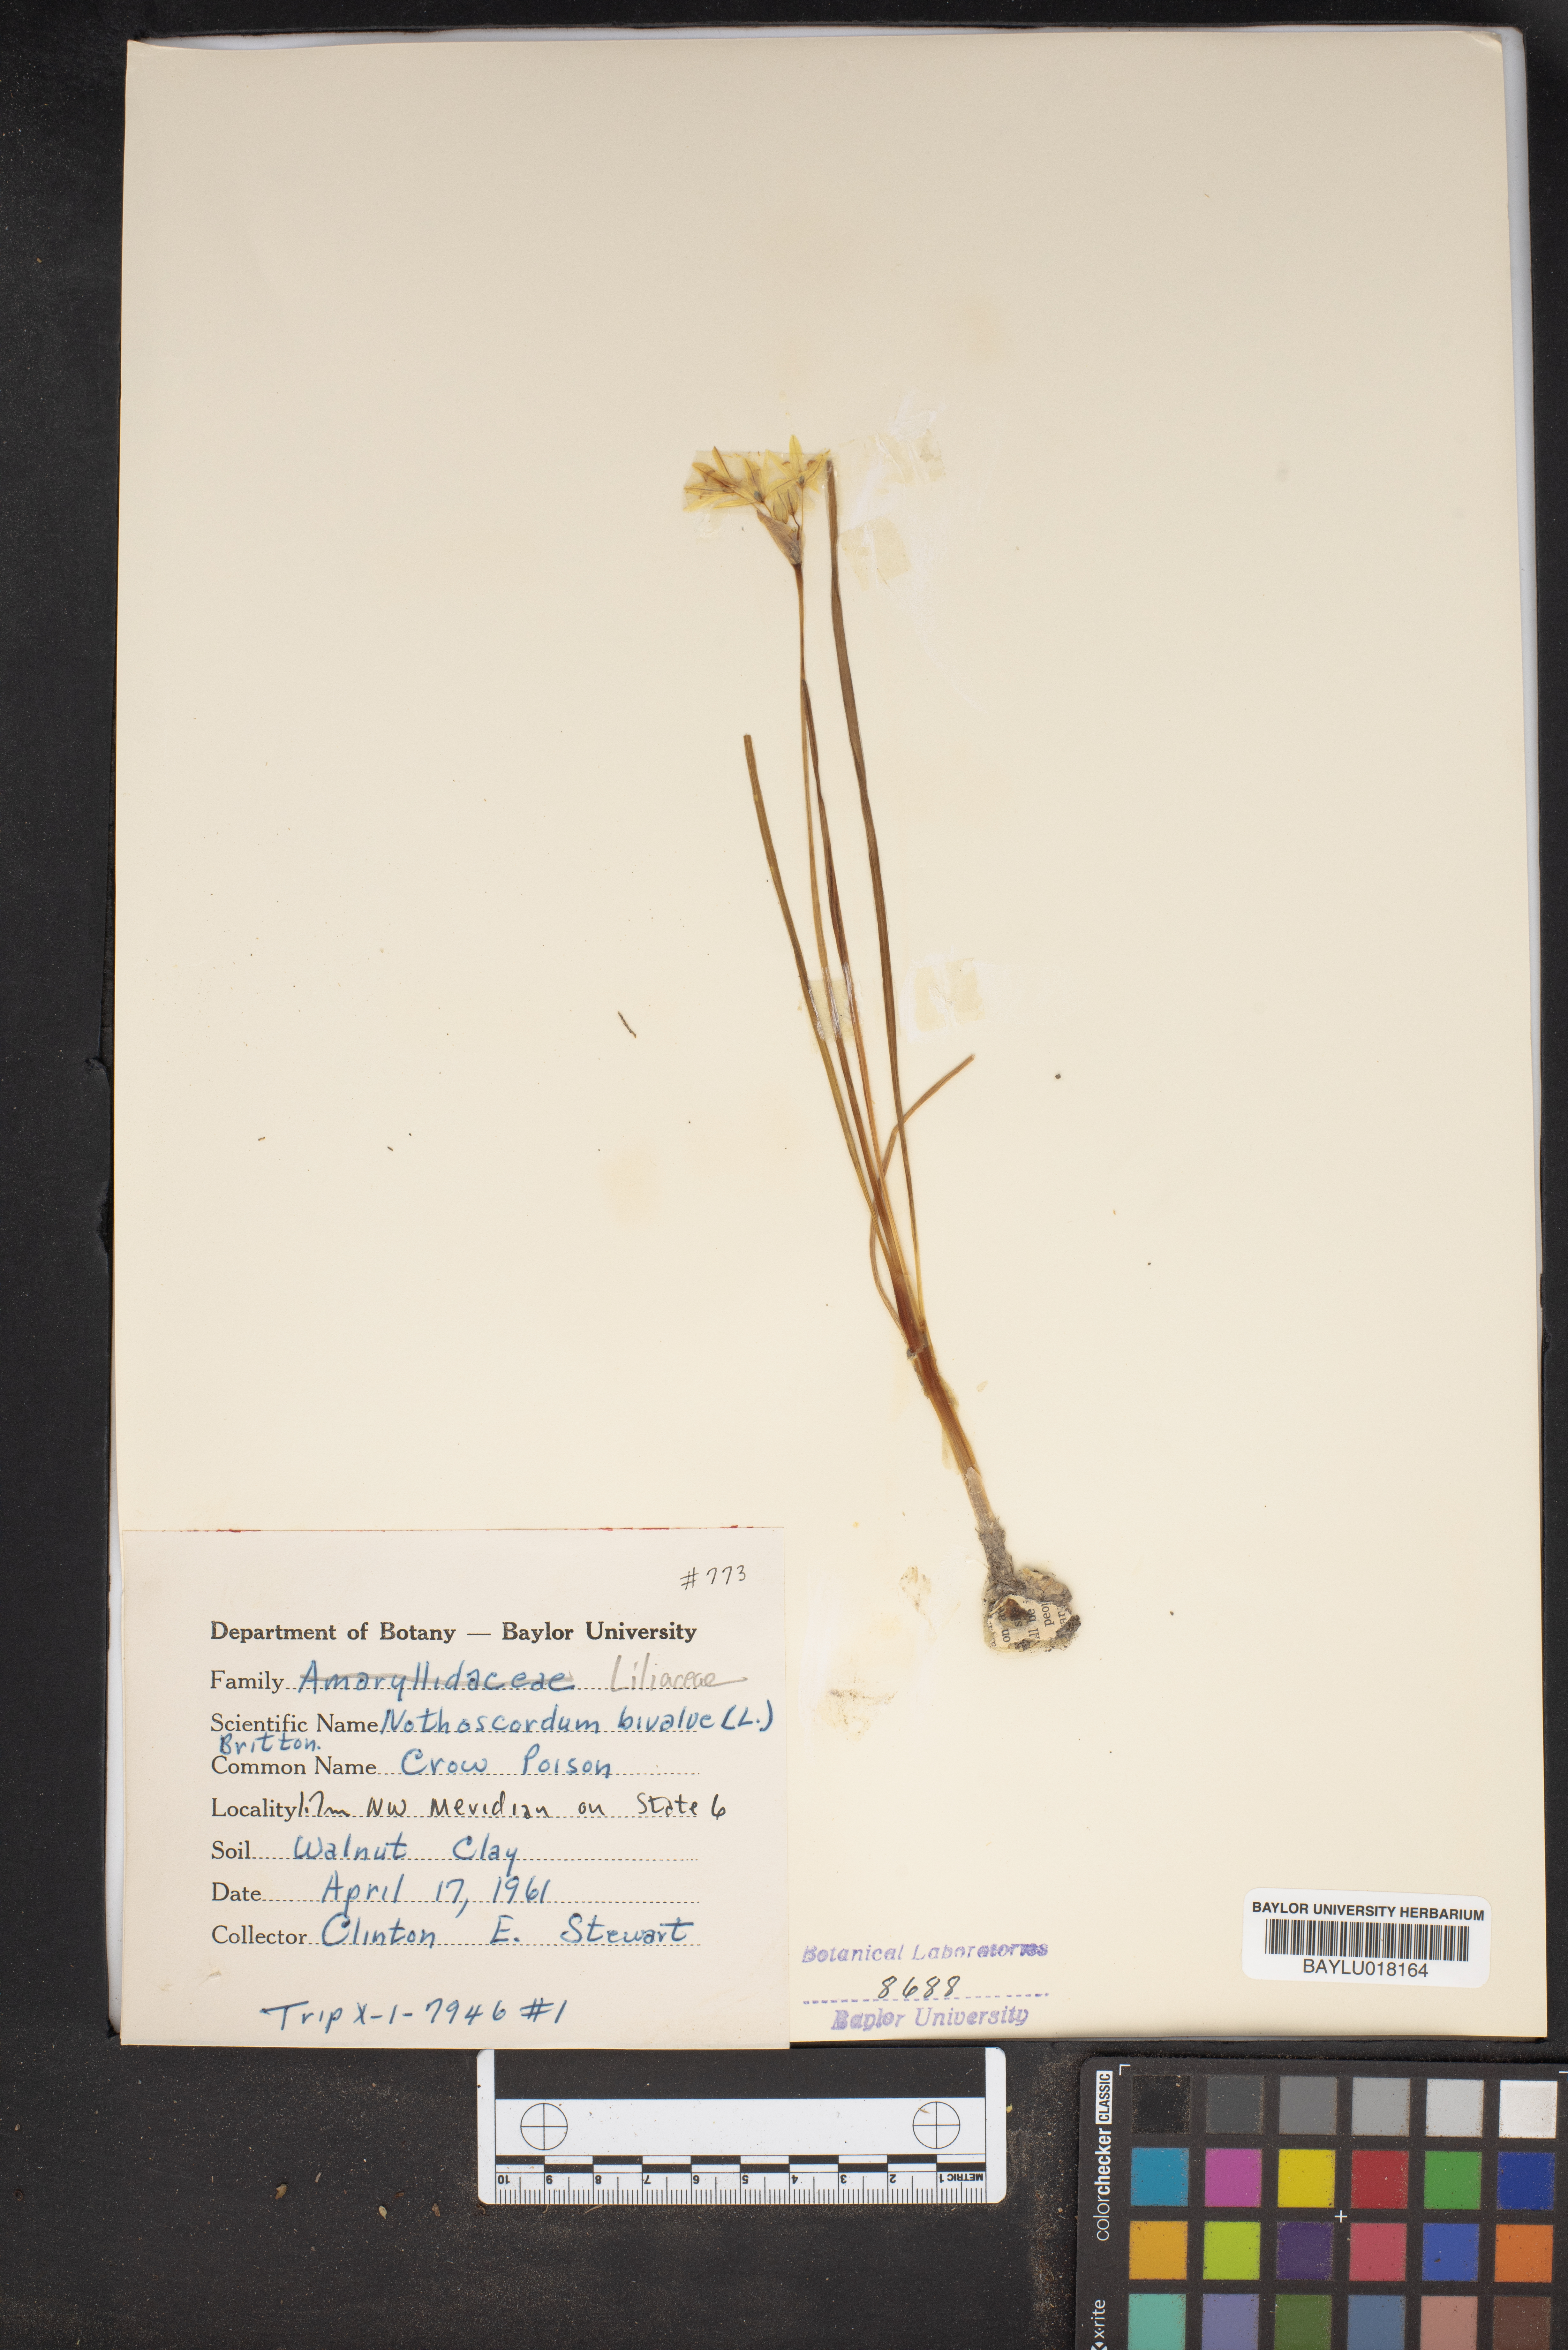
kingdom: Plantae
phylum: Tracheophyta
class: Liliopsida
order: Asparagales
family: Amaryllidaceae
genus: Nothoscordum
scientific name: Nothoscordum bivalve
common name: Crow-poison
